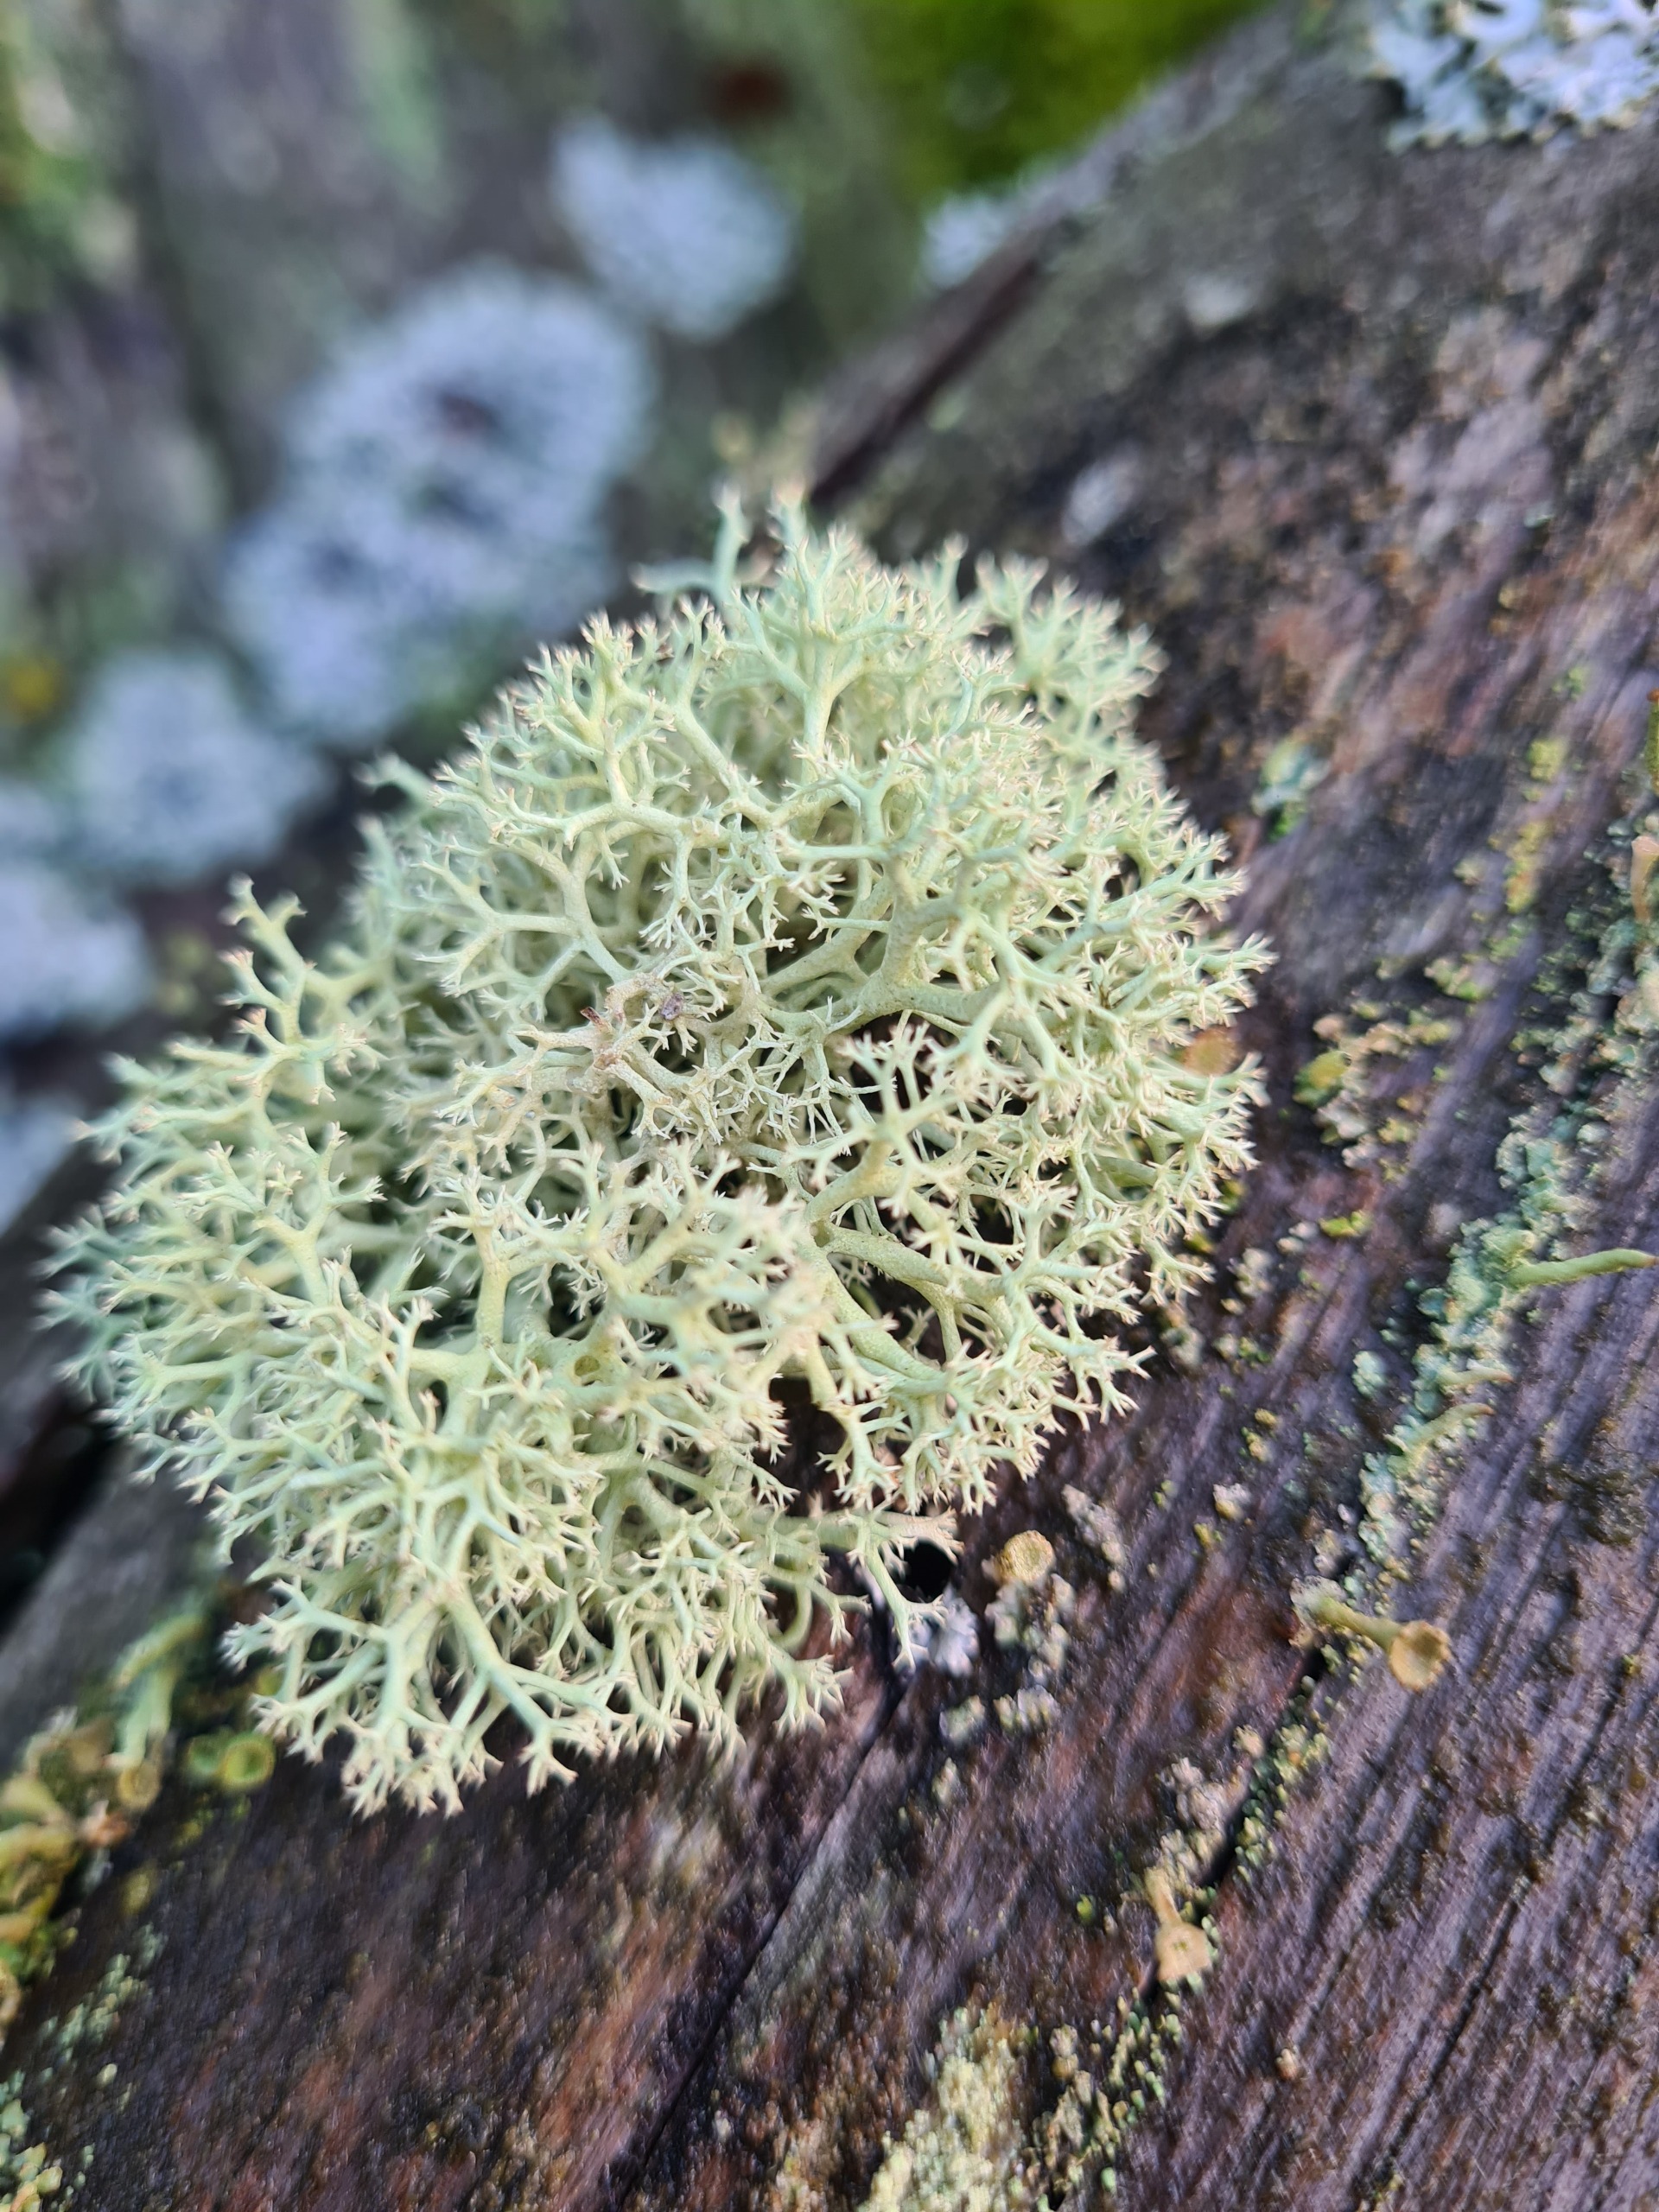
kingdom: Fungi
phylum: Ascomycota
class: Lecanoromycetes
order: Lecanorales
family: Cladoniaceae
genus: Cladonia
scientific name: Cladonia portentosa
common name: Hede-rensdyrlav
